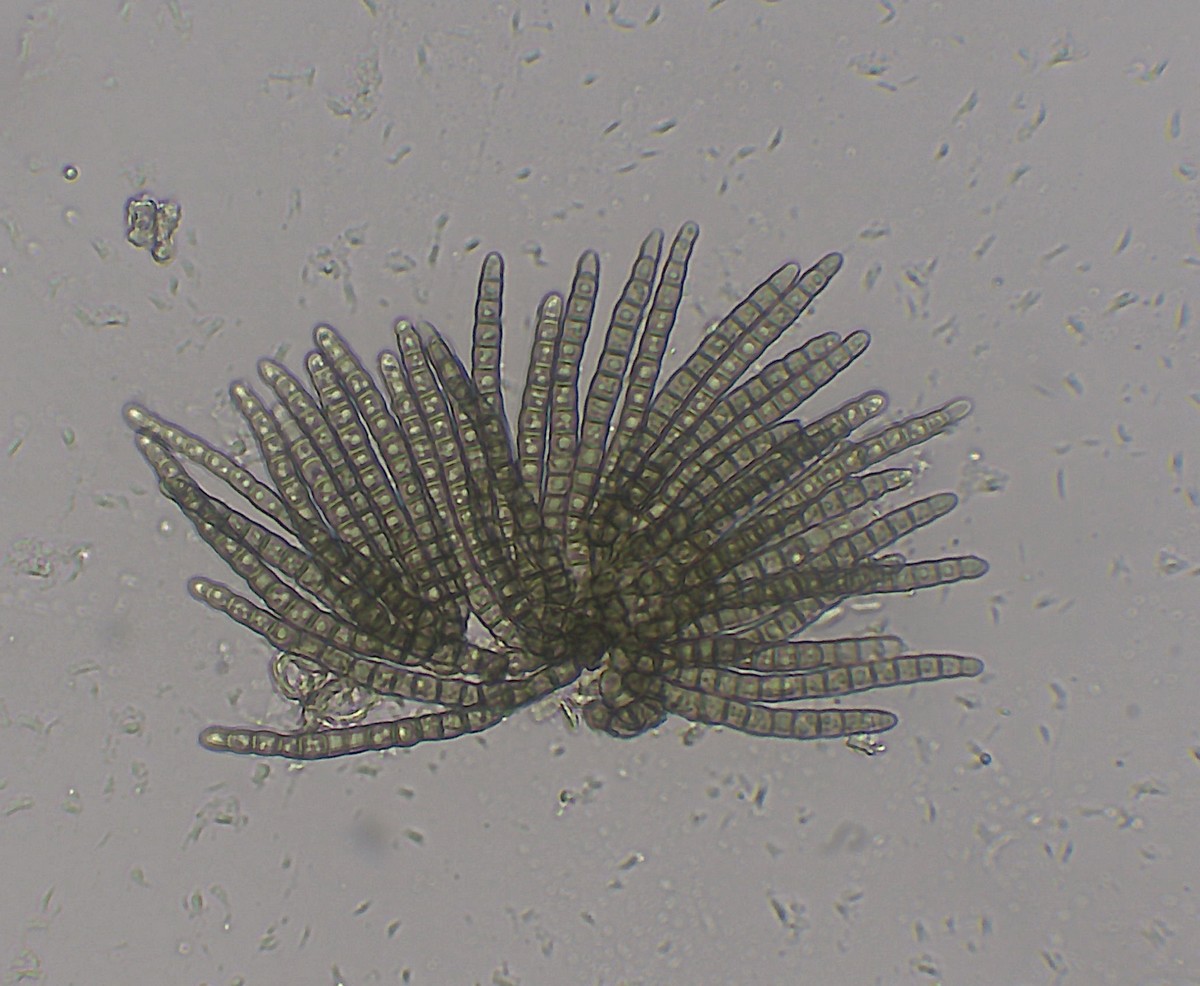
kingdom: Fungi
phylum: Ascomycota
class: Dothideomycetes
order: Pleosporales
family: Cryptocoryneaceae
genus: Cryptocoryneum
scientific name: Cryptocoryneum condensatum
